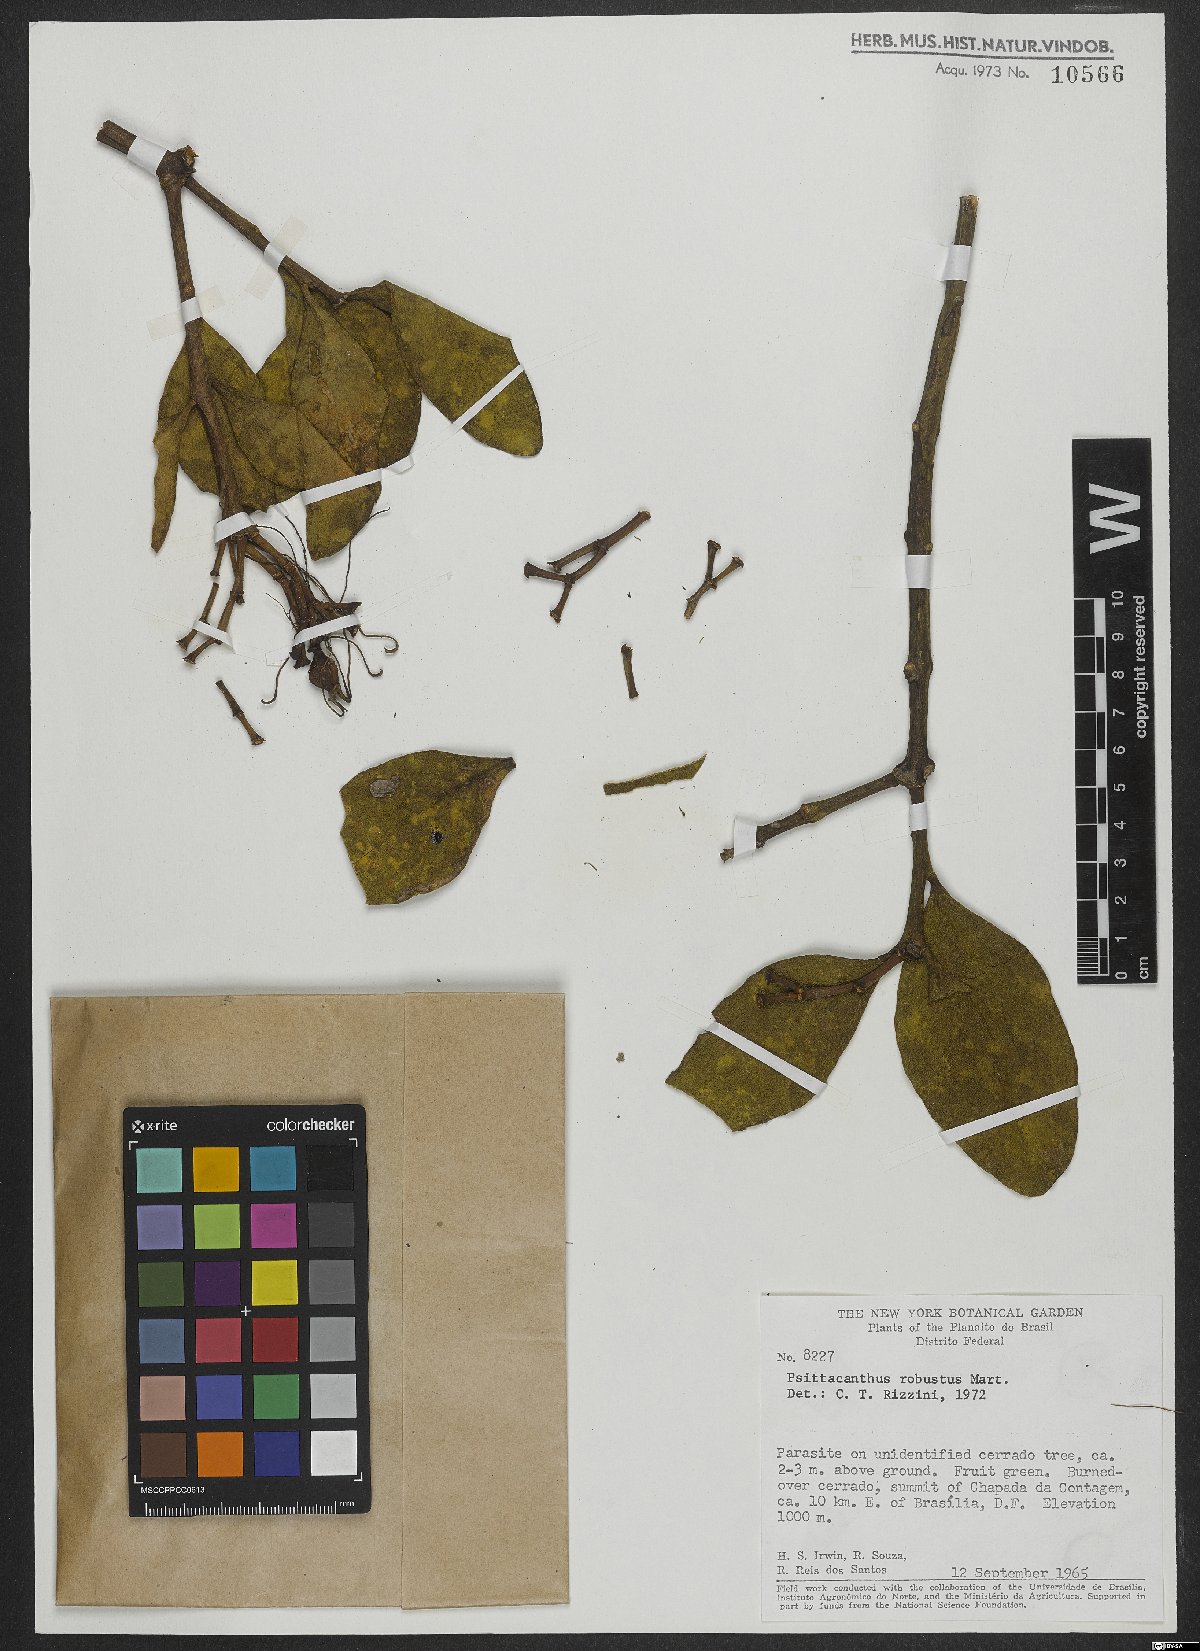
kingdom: Plantae
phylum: Tracheophyta
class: Magnoliopsida
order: Santalales
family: Loranthaceae
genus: Psittacanthus
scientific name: Psittacanthus robustus
